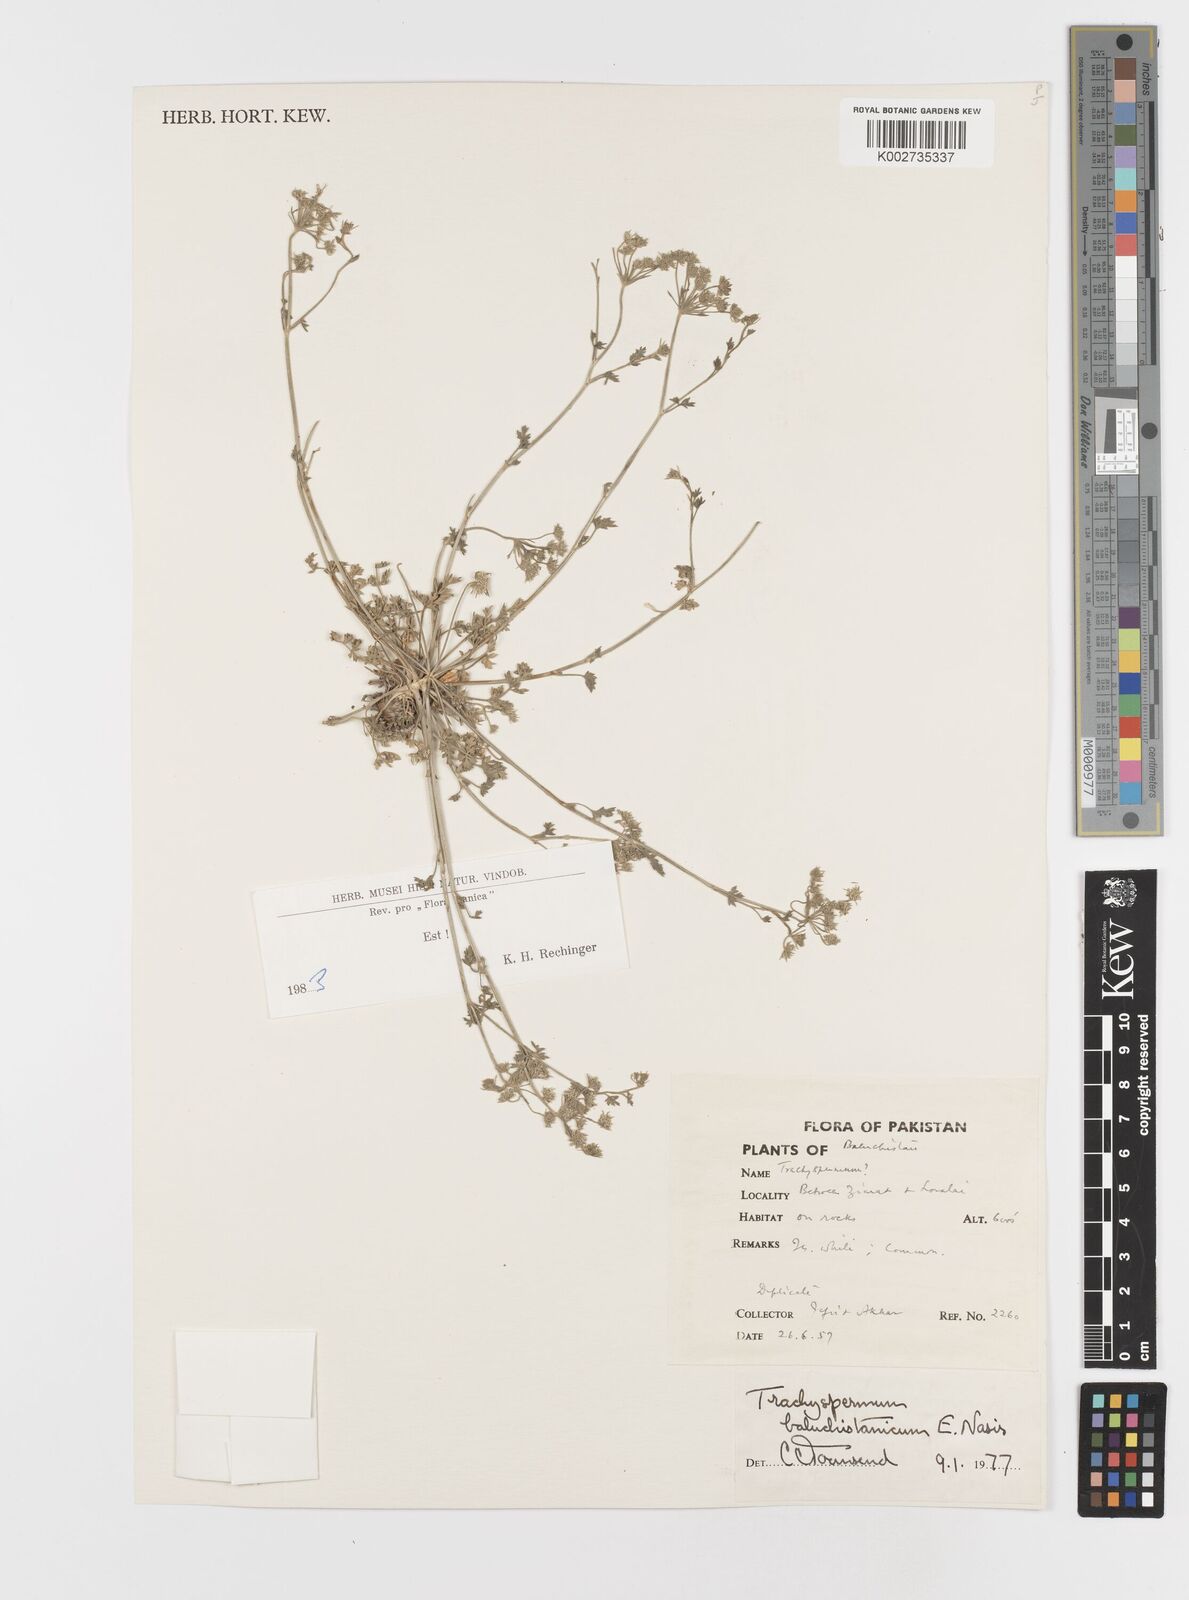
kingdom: Plantae
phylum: Tracheophyta
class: Magnoliopsida
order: Apiales
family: Apiaceae
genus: Trachyspermum
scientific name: Trachyspermum baluchistanicum
